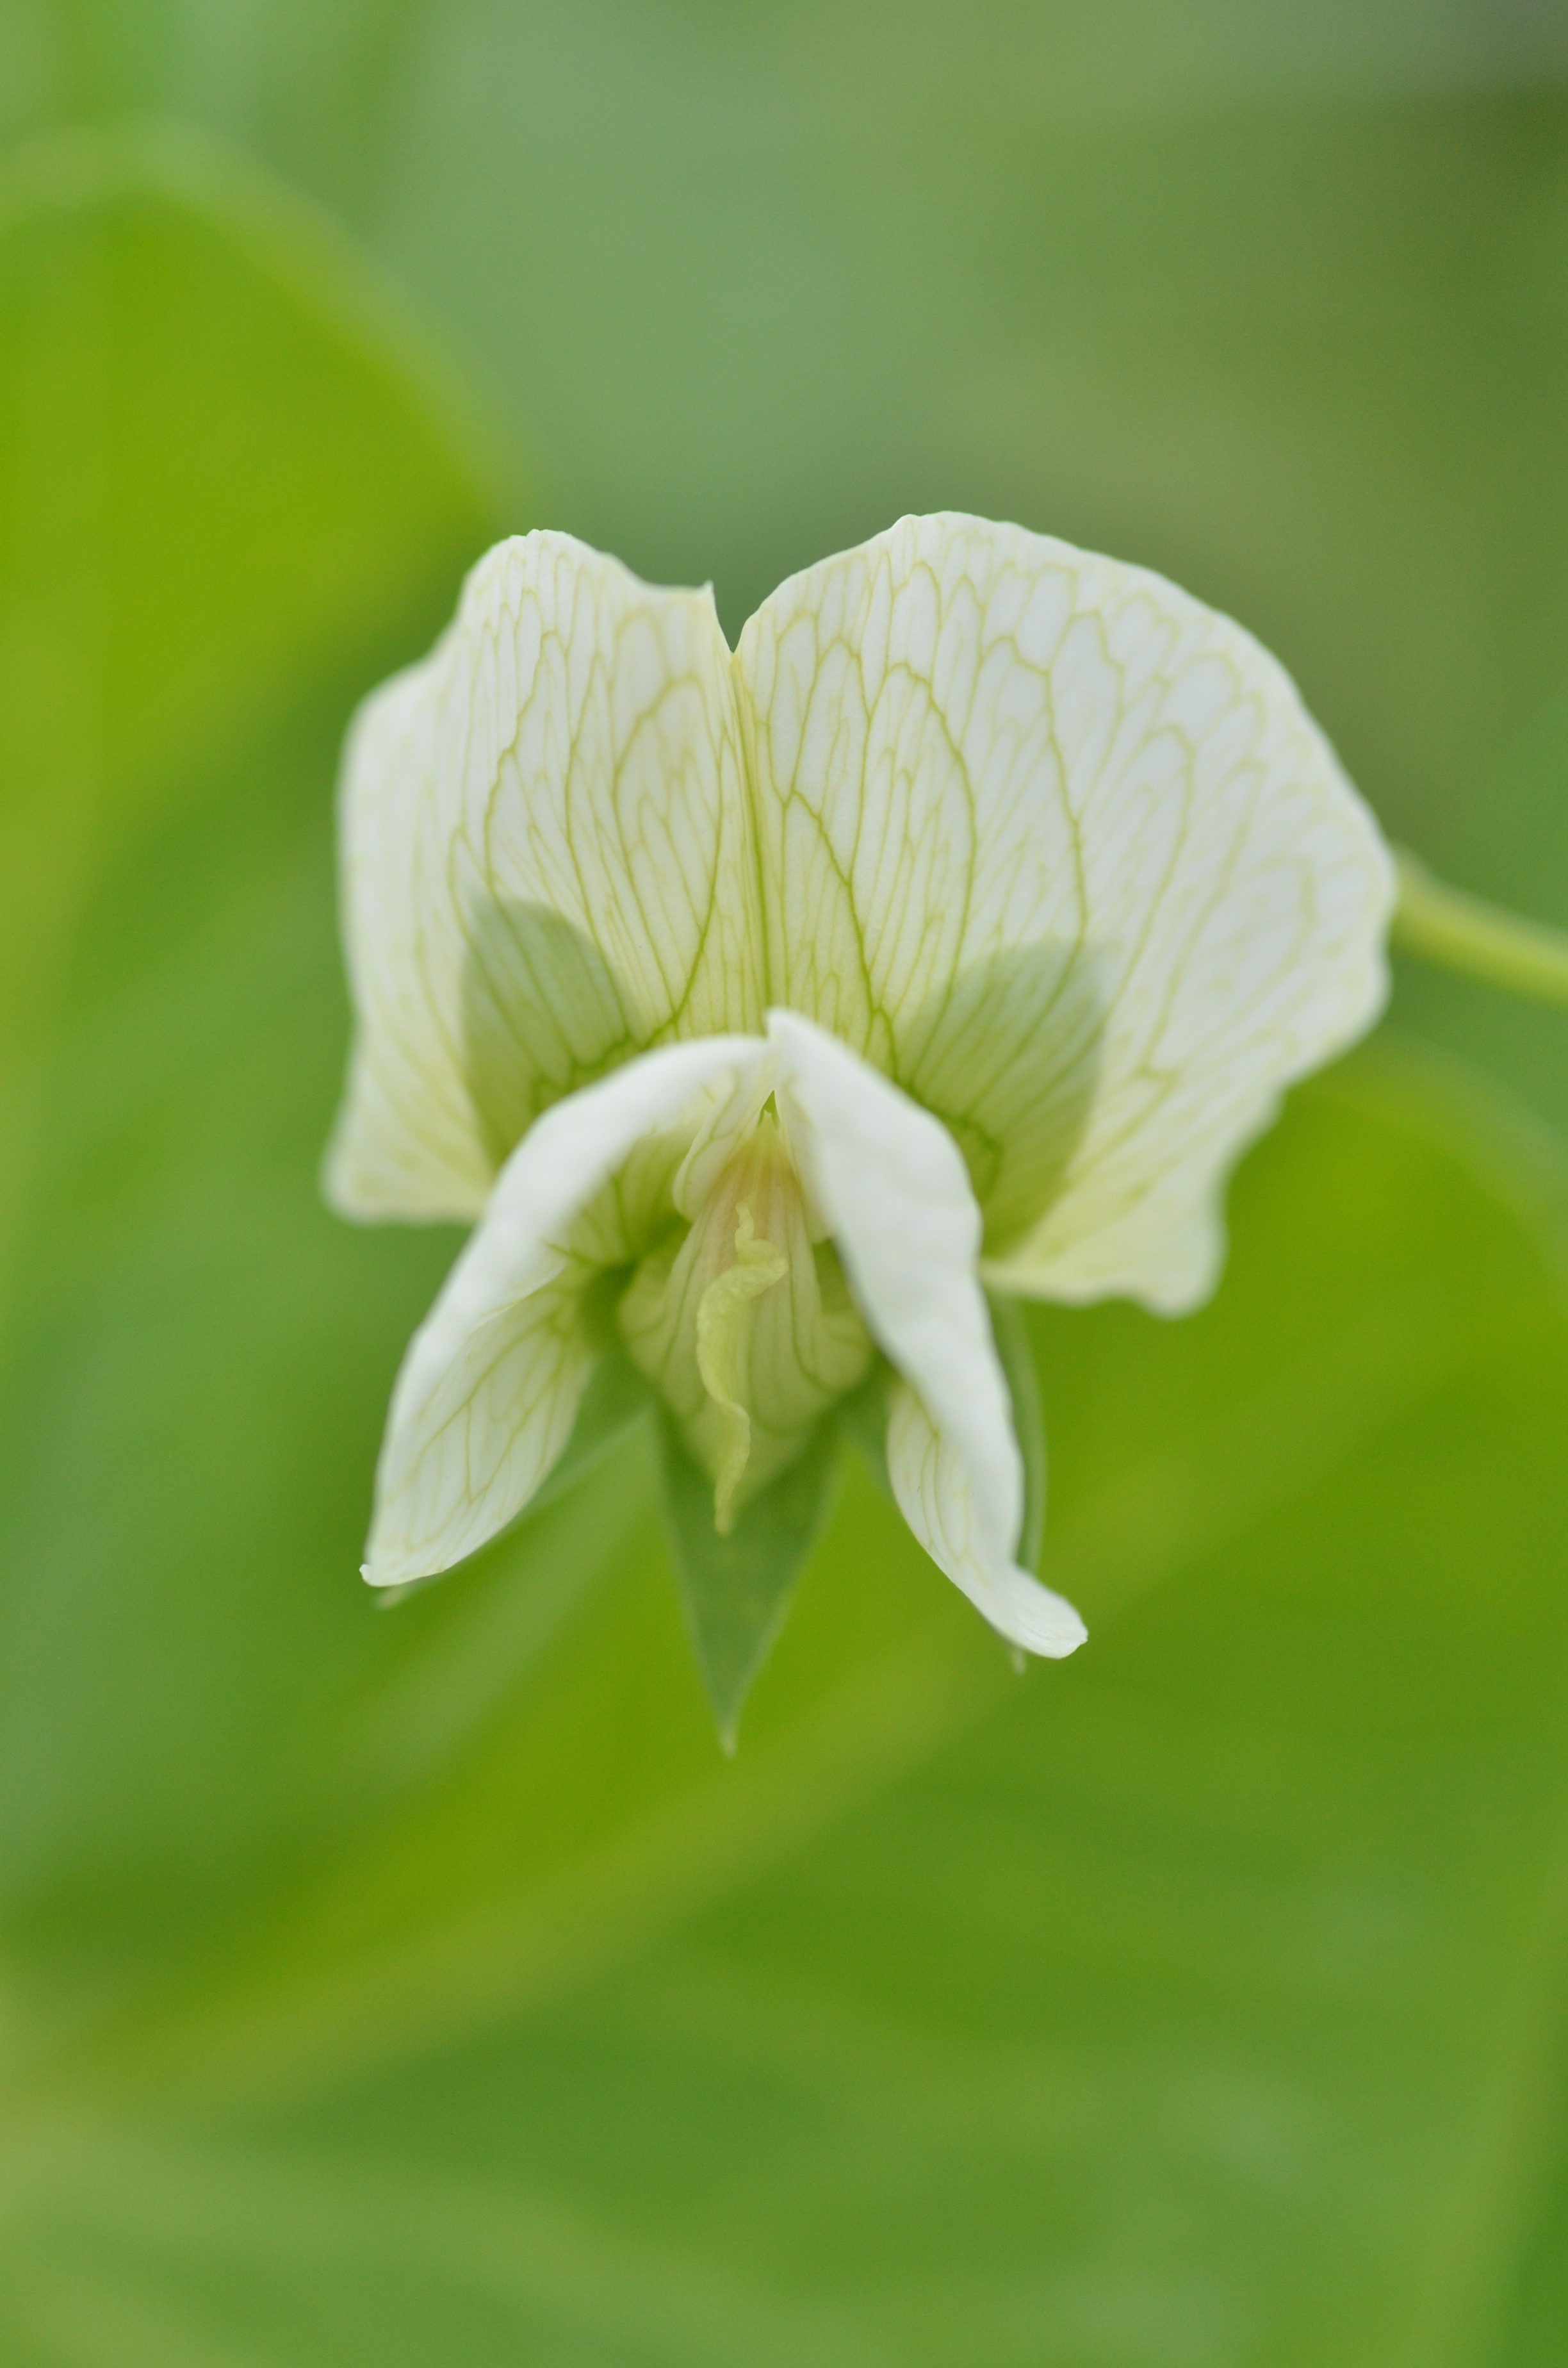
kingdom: Plantae
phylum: Tracheophyta
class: Magnoliopsida
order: Fabales
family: Fabaceae
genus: Lathyrus
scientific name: Lathyrus oleraceus
